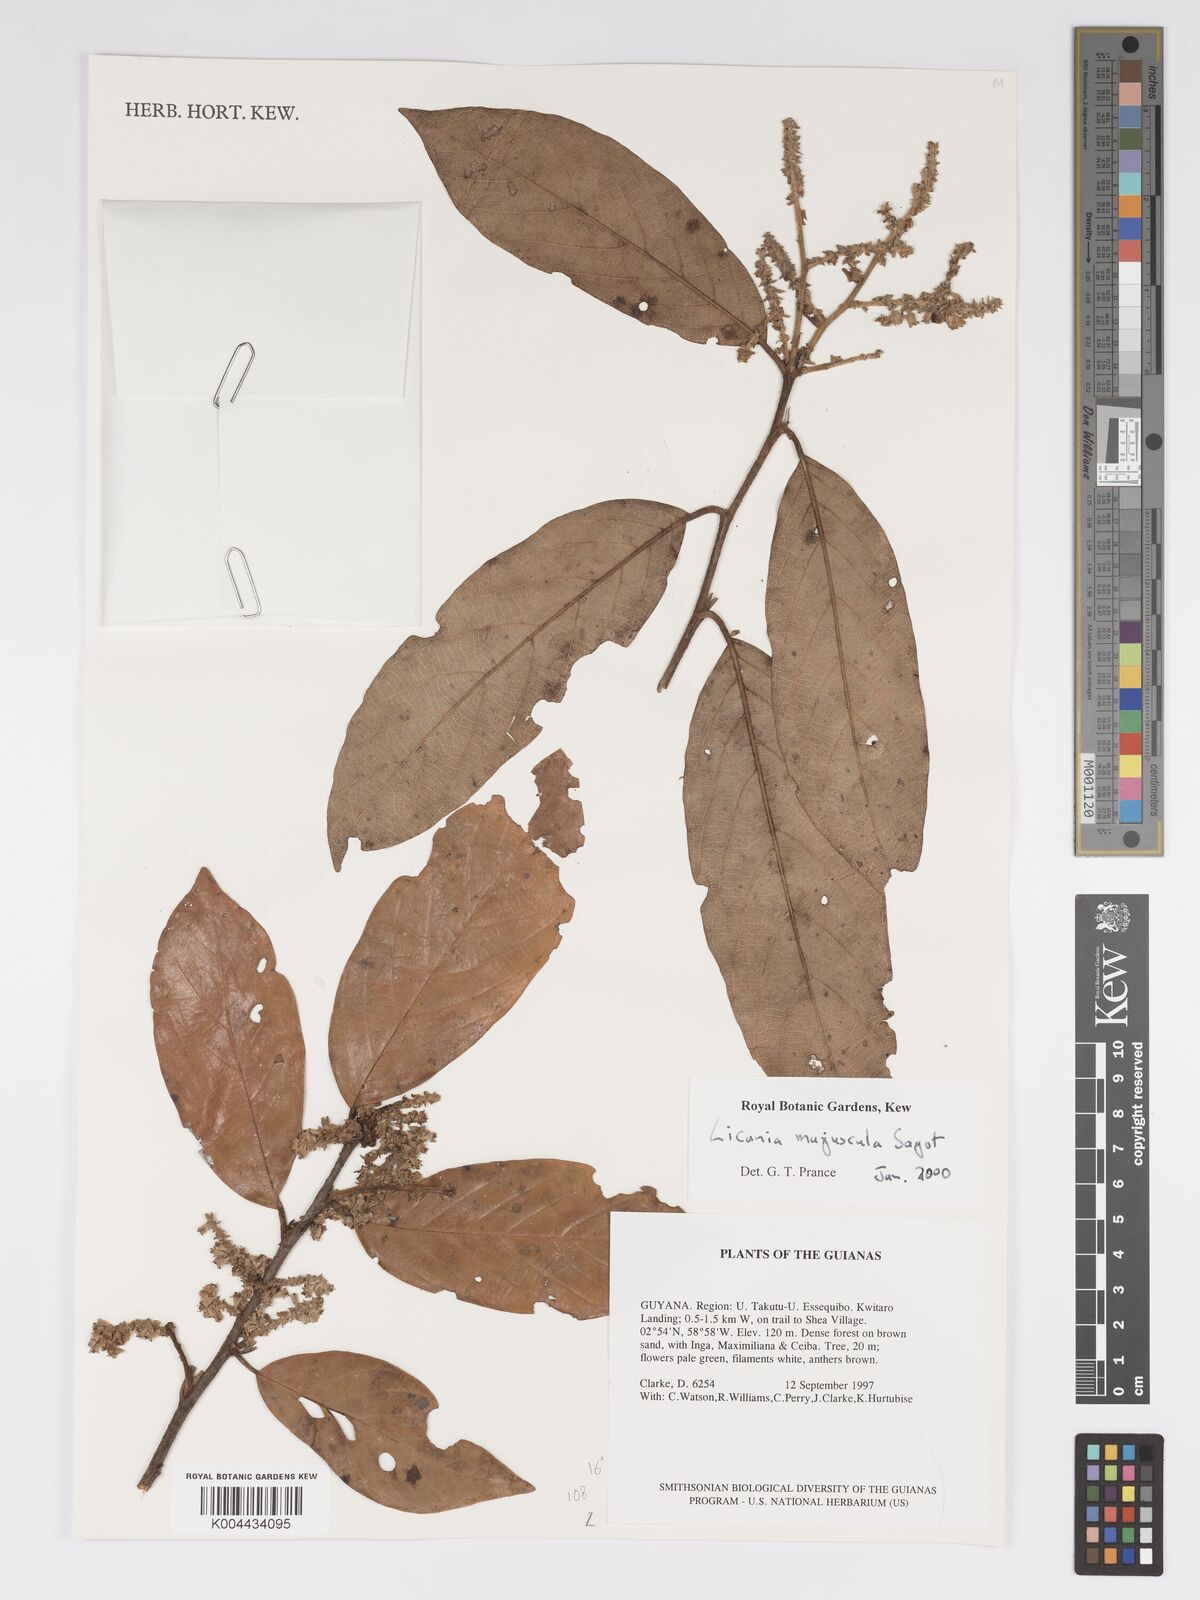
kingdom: Plantae
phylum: Tracheophyta
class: Magnoliopsida
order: Malpighiales
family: Chrysobalanaceae
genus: Licania
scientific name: Licania jimenezii
